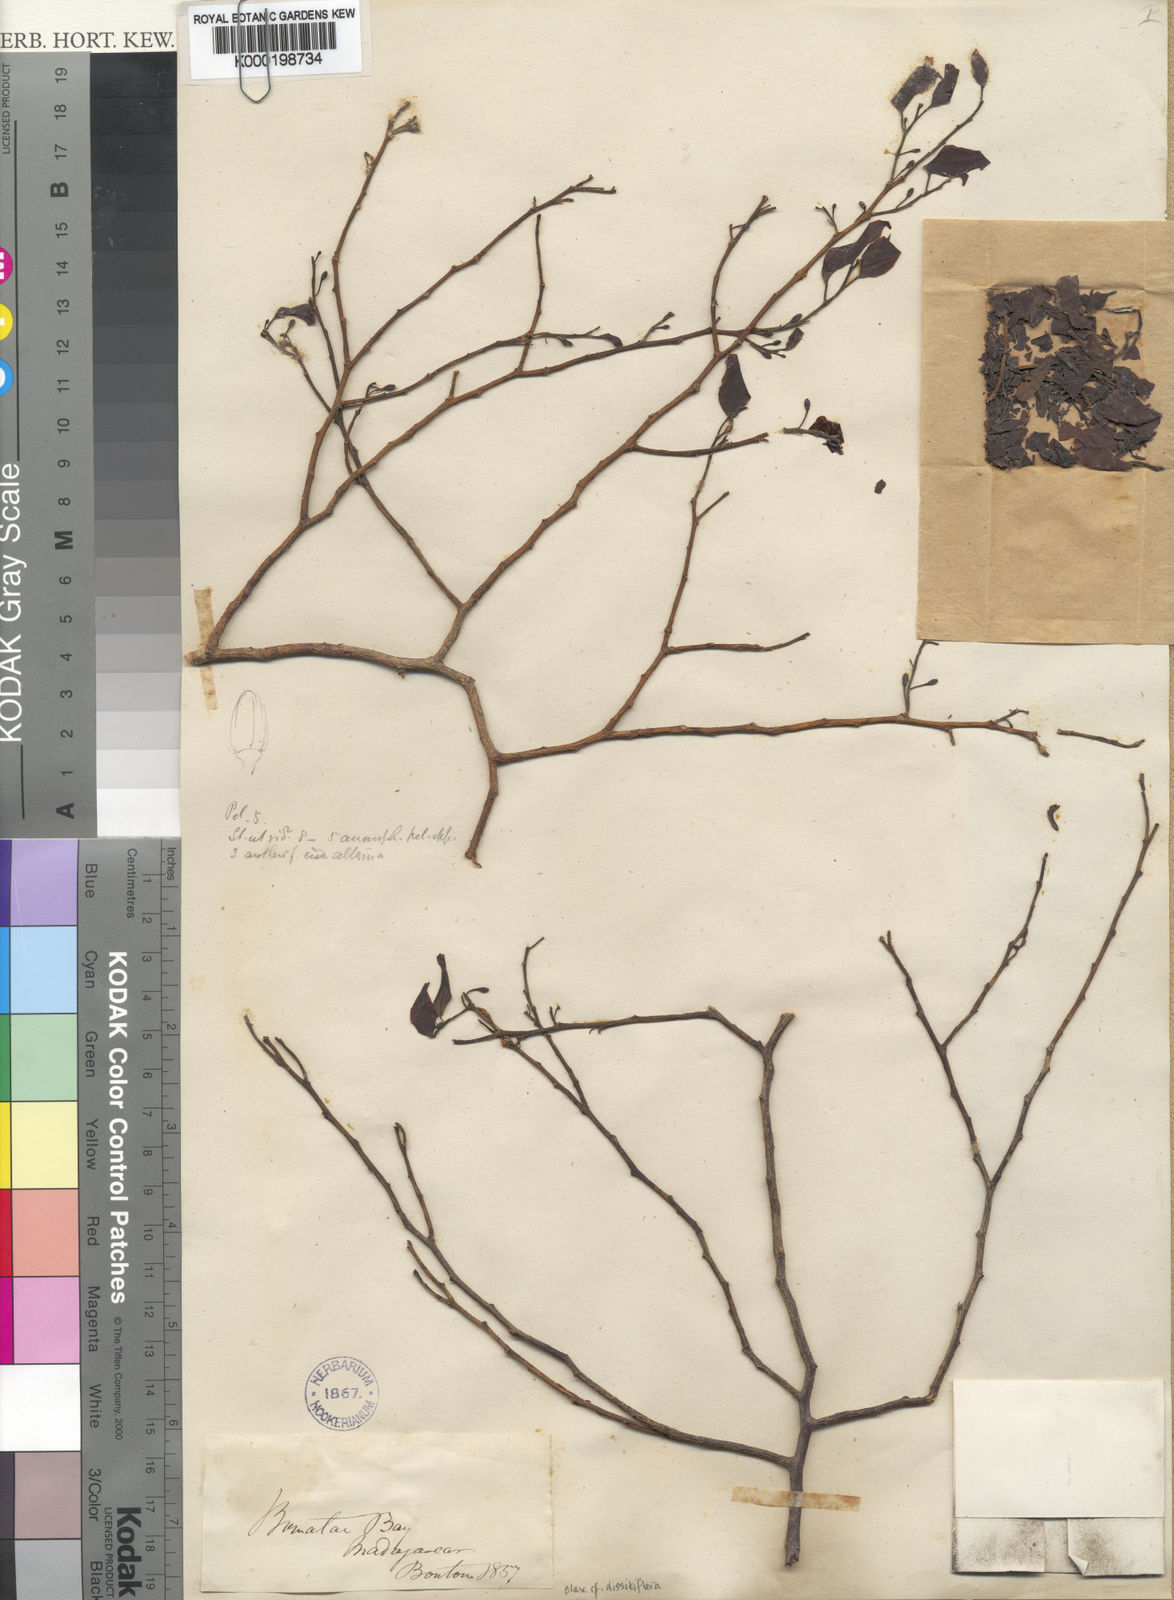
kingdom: Plantae
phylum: Tracheophyta
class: Magnoliopsida
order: Santalales
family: Olacaceae
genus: Olax
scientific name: Olax dissitiflora
